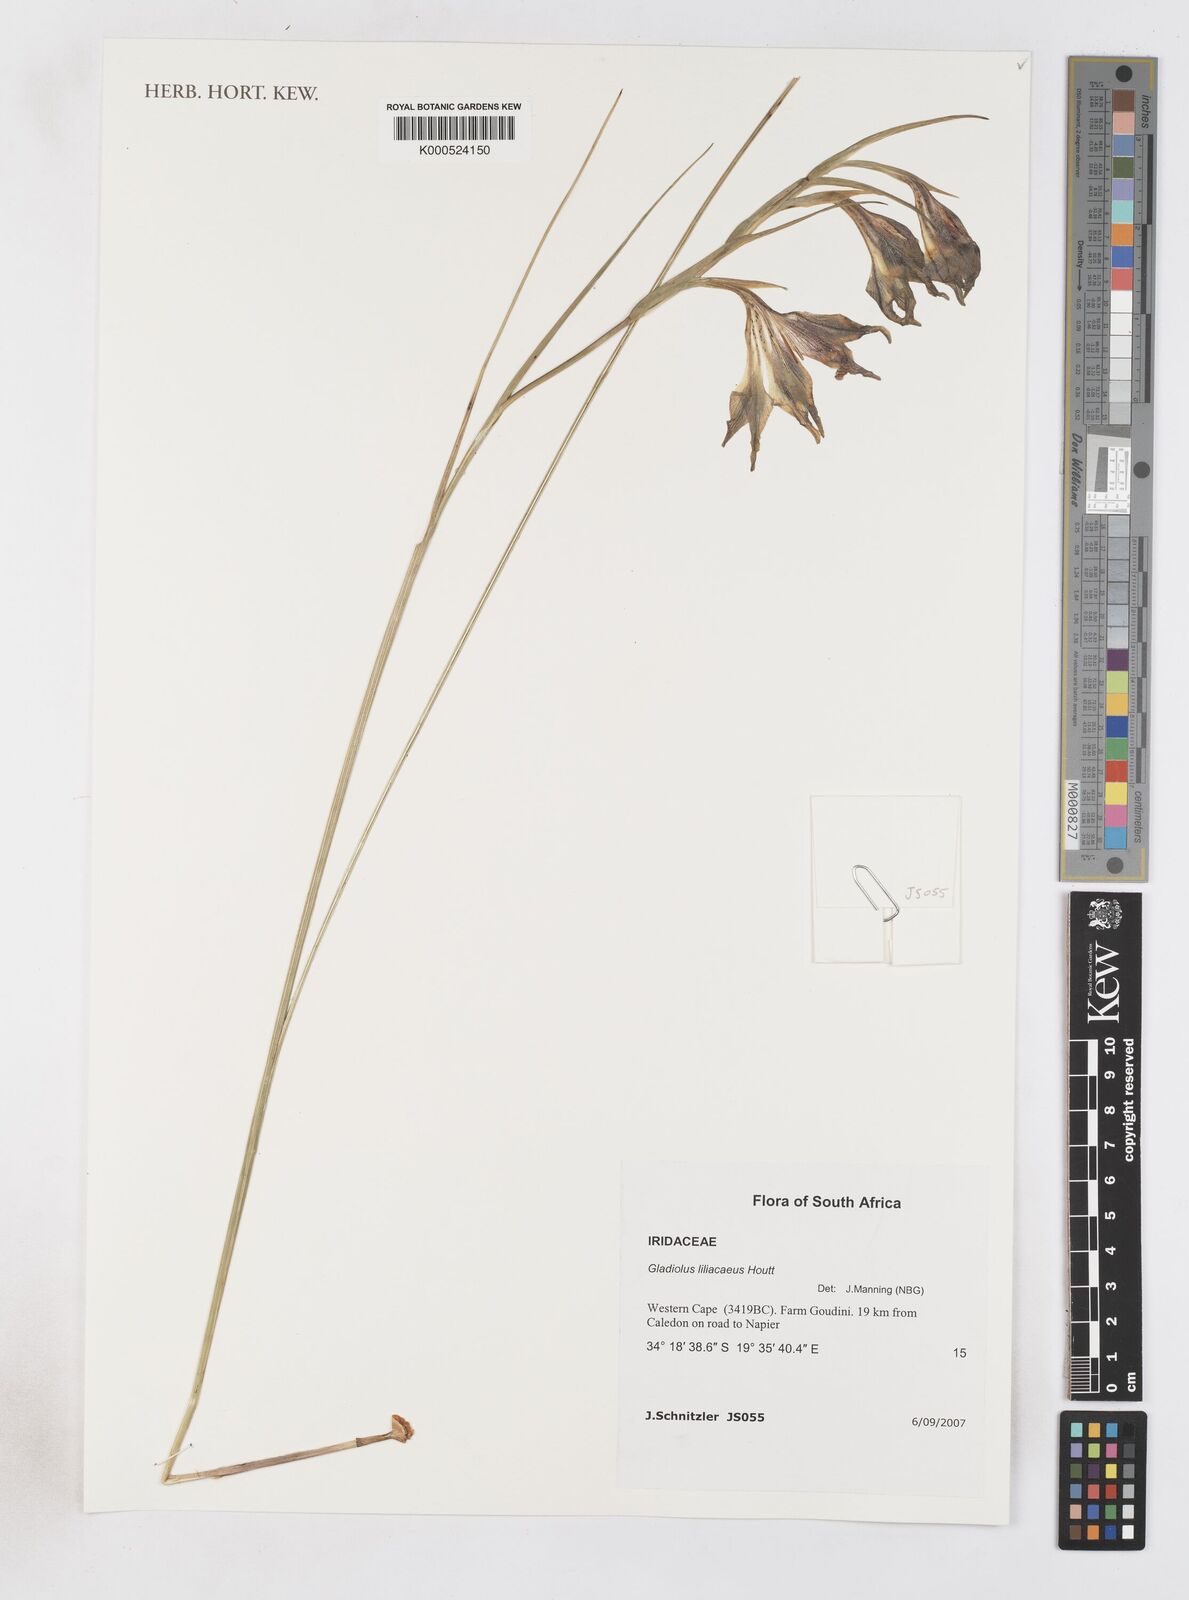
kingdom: Plantae
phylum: Tracheophyta
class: Liliopsida
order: Asparagales
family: Iridaceae
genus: Gladiolus
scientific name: Gladiolus liliaceus
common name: Large brown afrikaner
